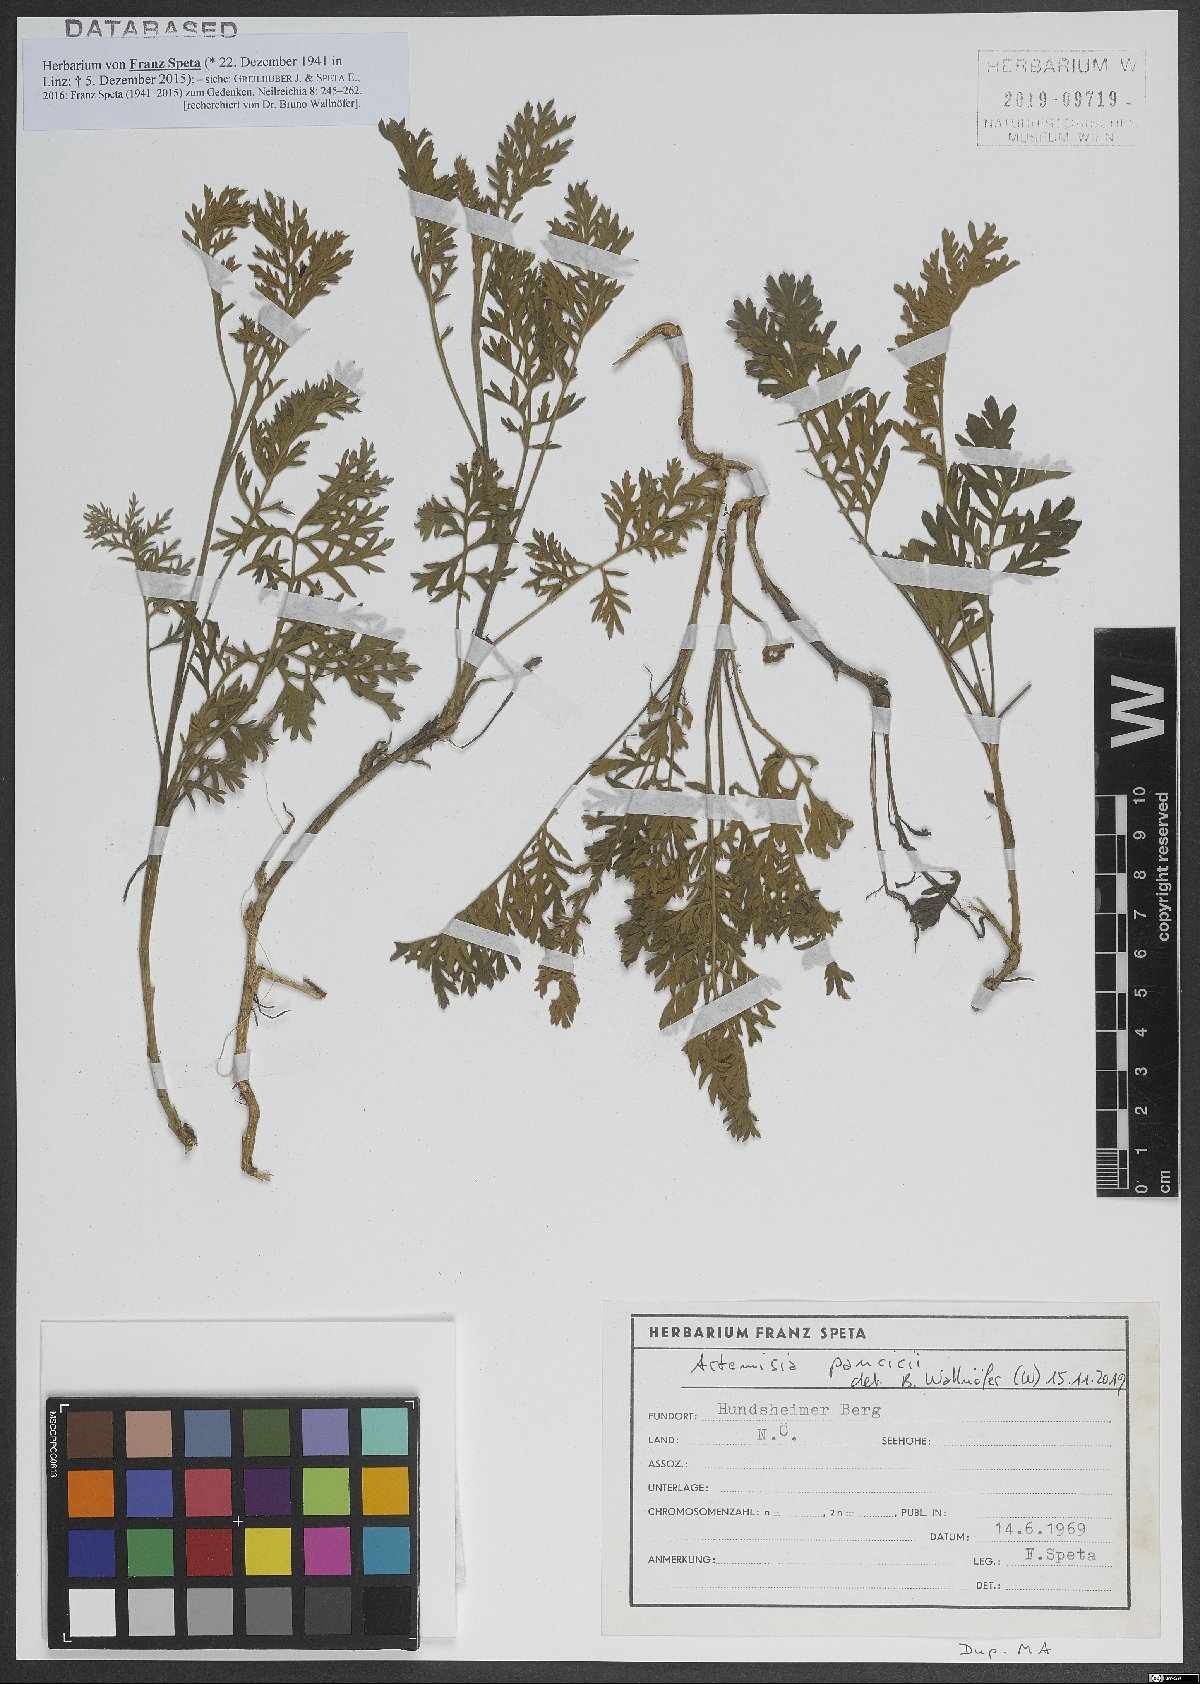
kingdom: Plantae
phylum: Tracheophyta
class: Magnoliopsida
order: Asterales
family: Asteraceae
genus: Artemisia
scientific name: Artemisia pancicii
